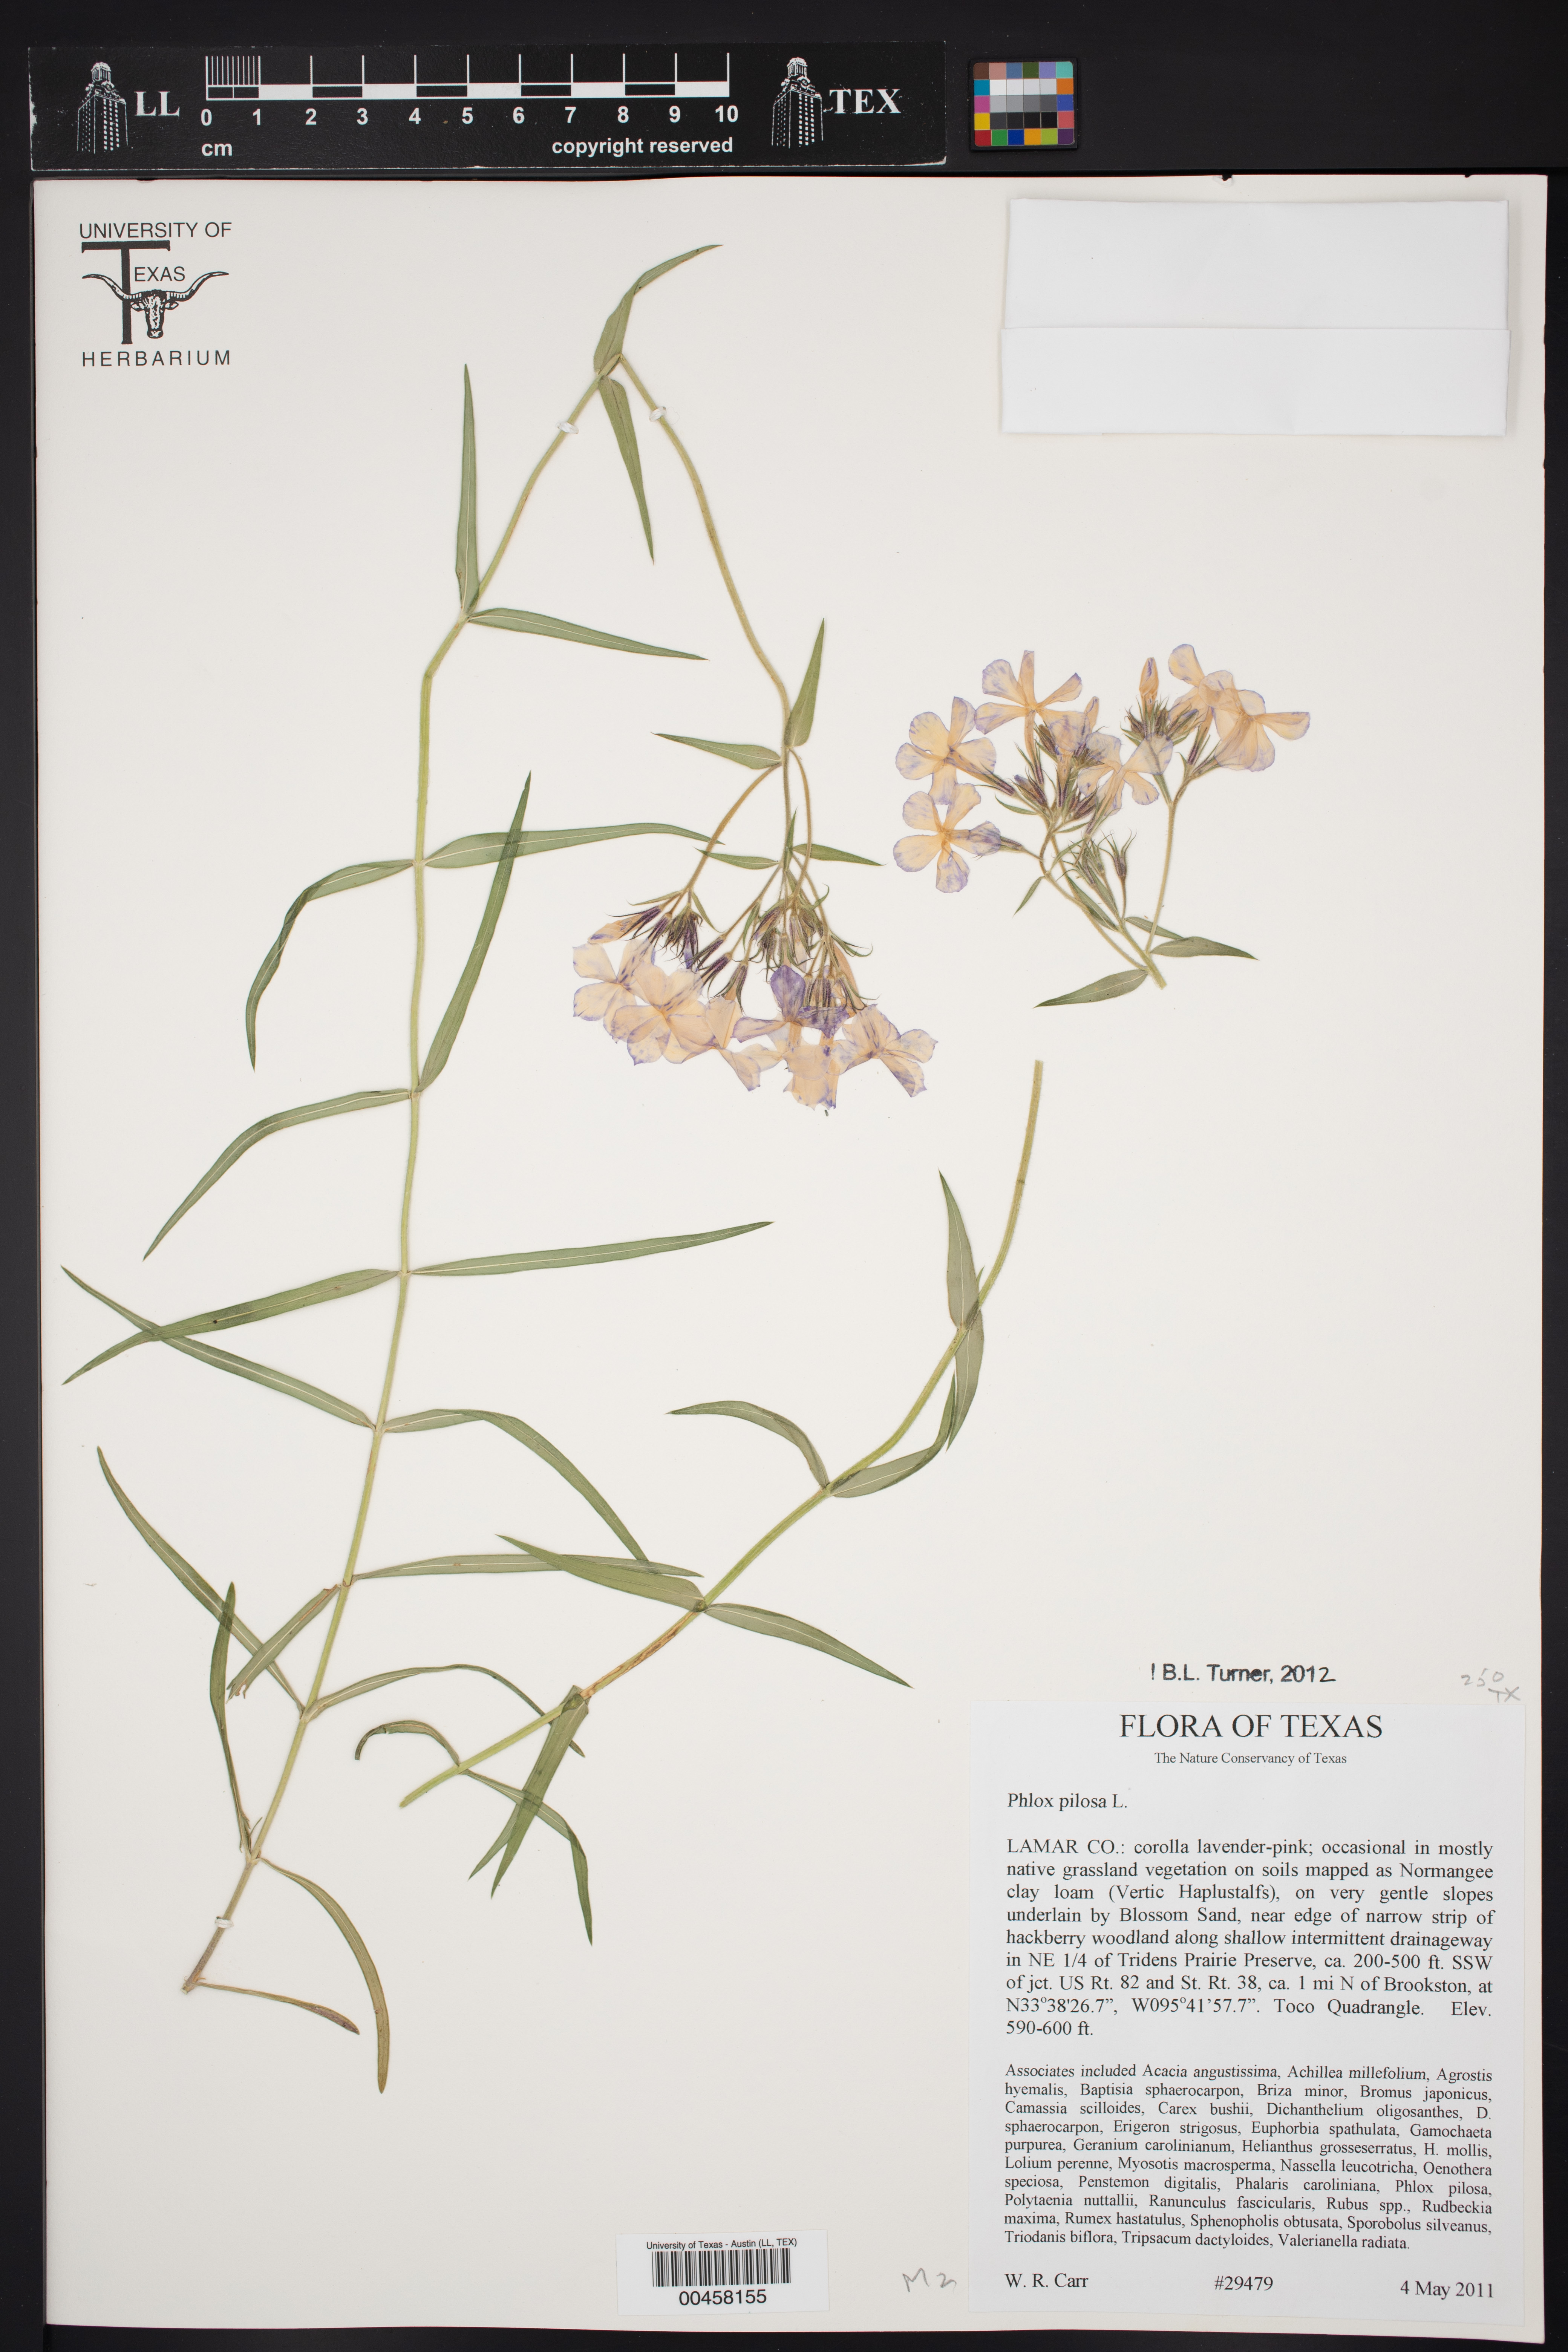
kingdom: Plantae
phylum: Tracheophyta
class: Magnoliopsida
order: Ericales
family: Polemoniaceae
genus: Phlox
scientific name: Phlox pilosa
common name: Prairie phlox
